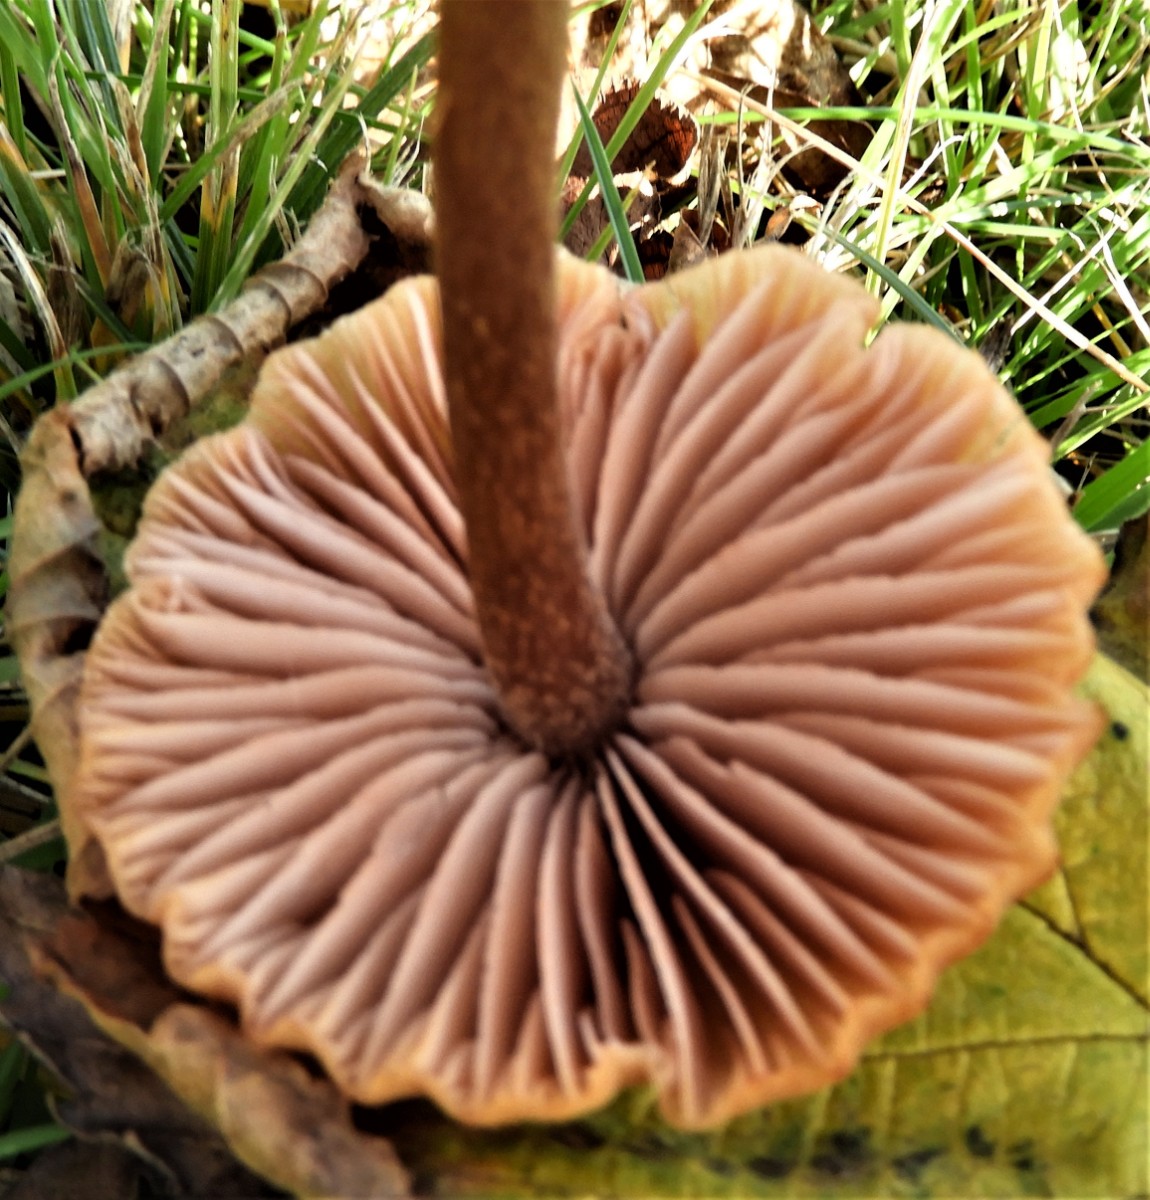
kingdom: Fungi
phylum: Basidiomycota
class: Agaricomycetes
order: Agaricales
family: Hydnangiaceae
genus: Laccaria
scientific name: Laccaria proxima
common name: stor ametysthat
